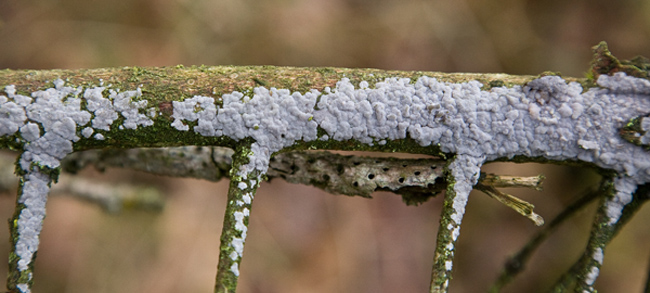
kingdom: Fungi
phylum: Basidiomycota
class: Agaricomycetes
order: Sebacinales
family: Sebacinaceae
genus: Sebacina
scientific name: Sebacina grisea
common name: blågrå bævrehinde
